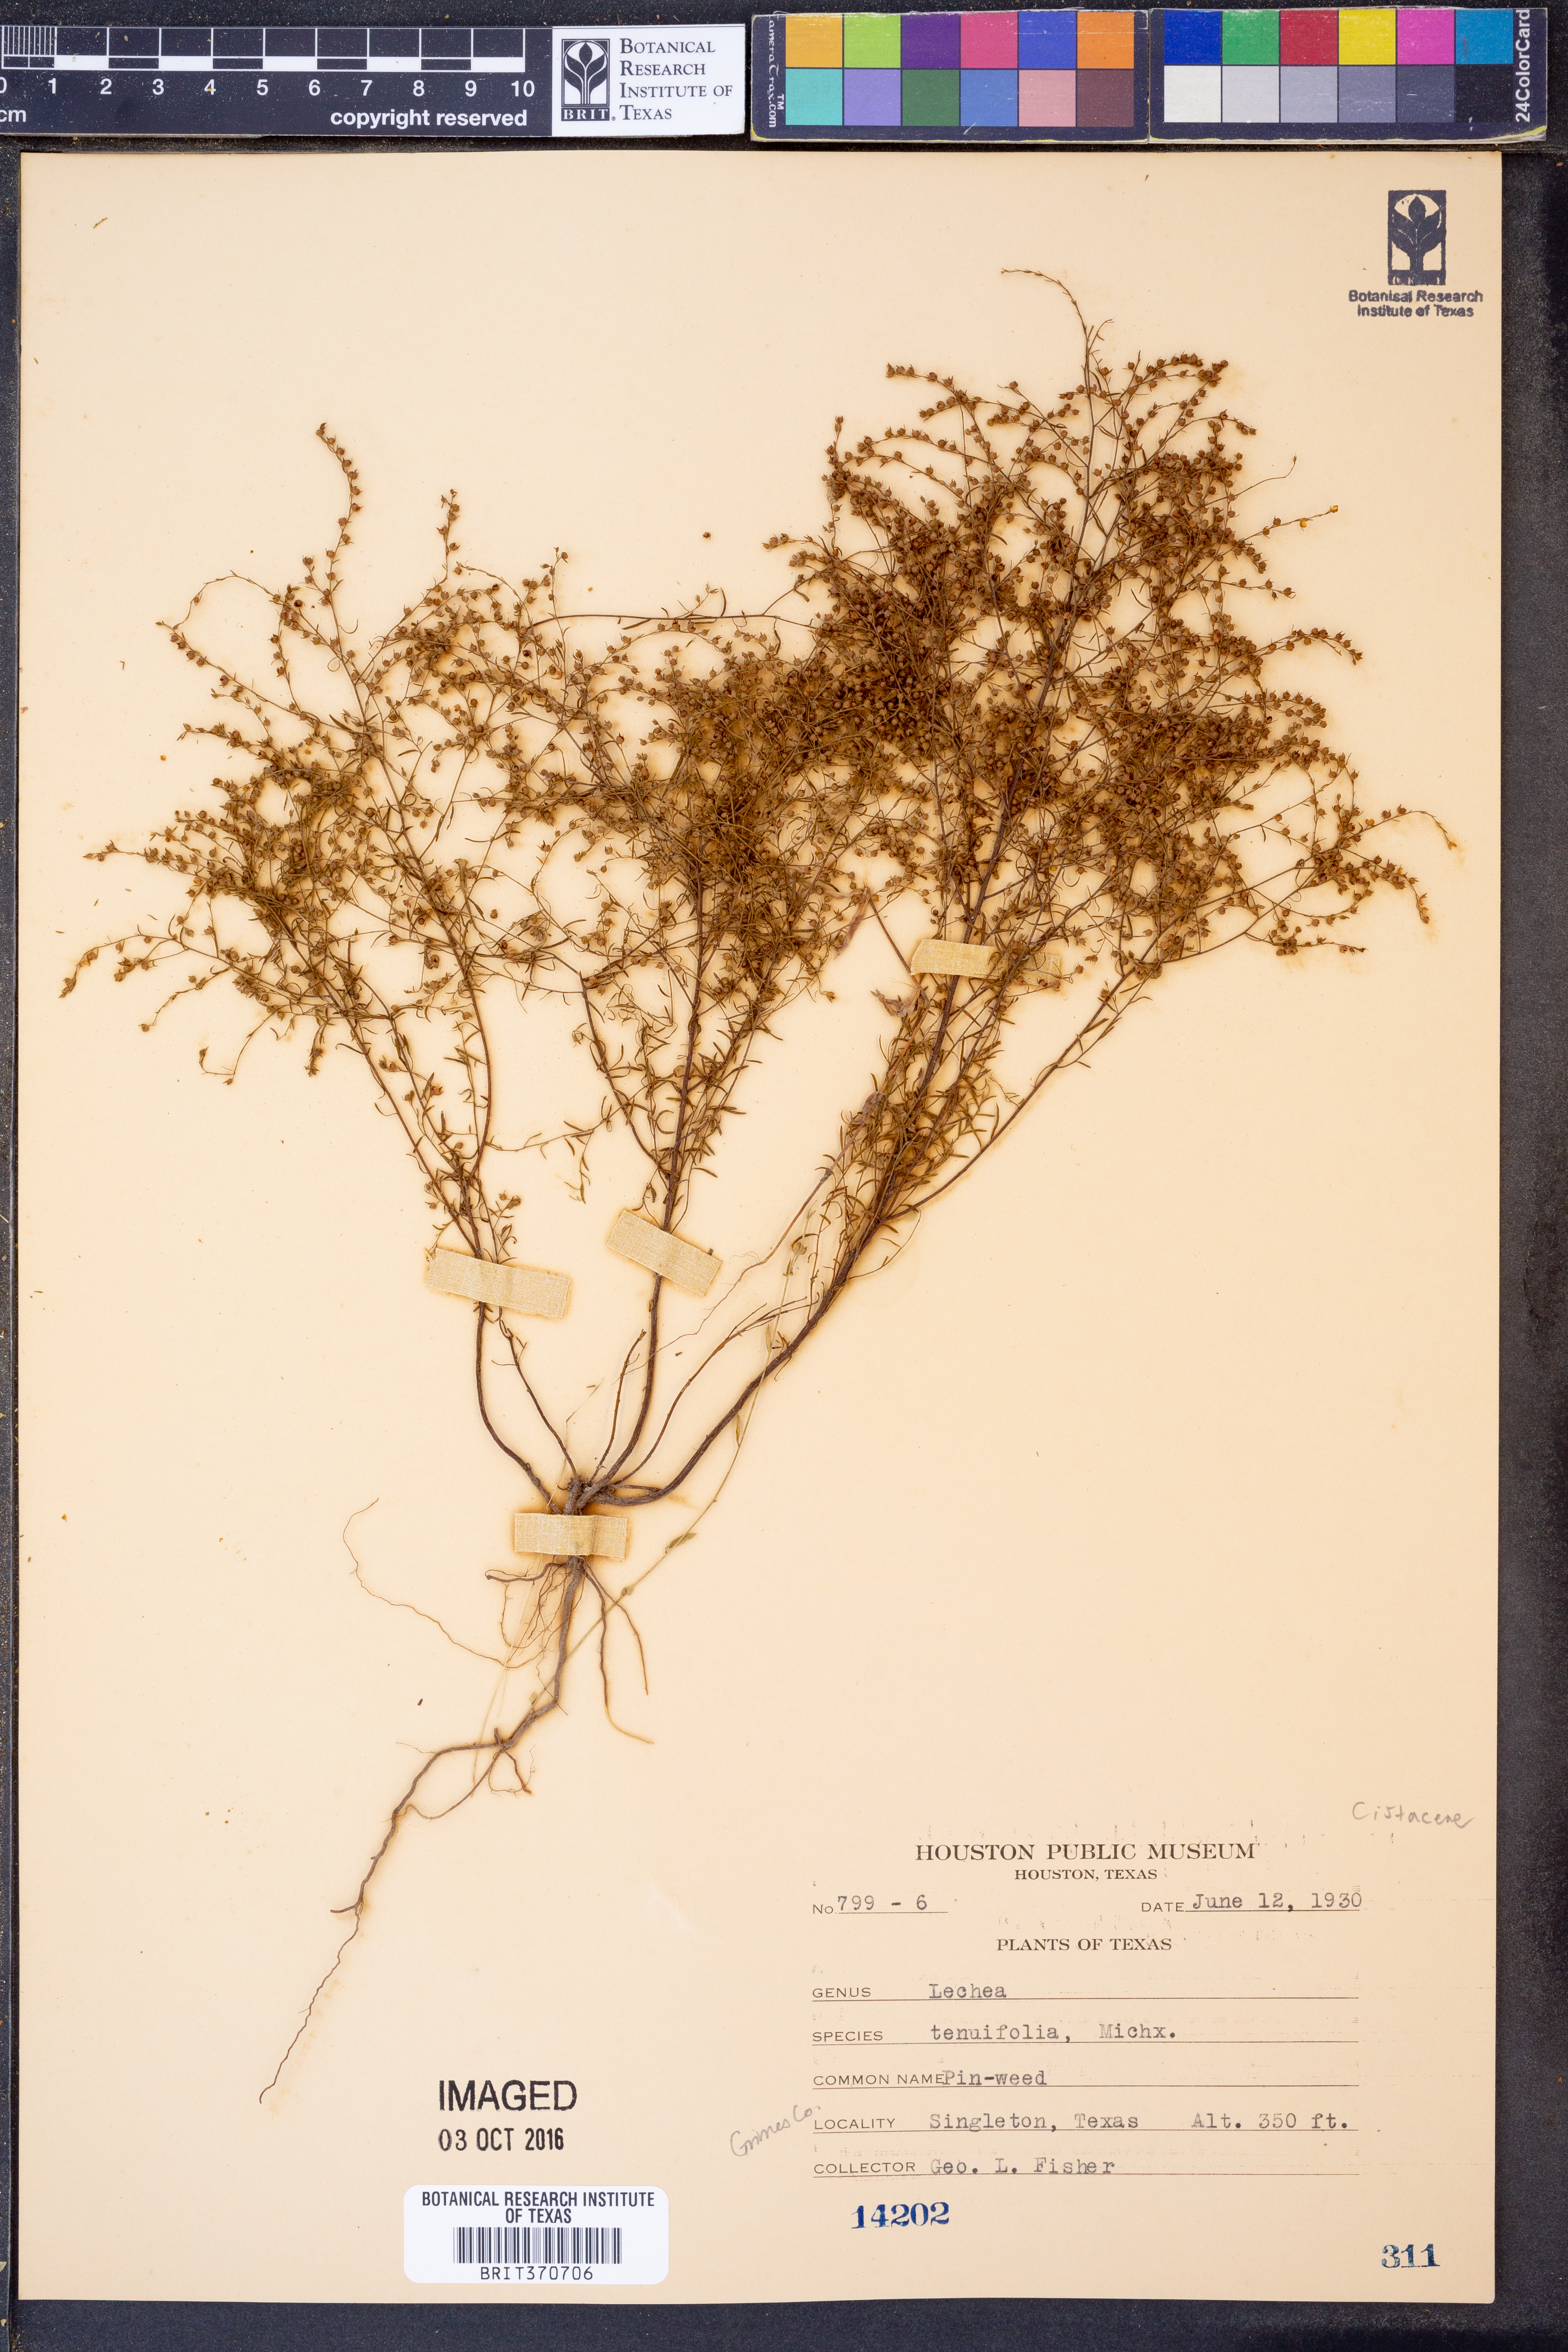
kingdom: Plantae
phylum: Tracheophyta
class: Magnoliopsida
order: Malvales
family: Cistaceae
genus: Lechea
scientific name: Lechea tenuifolia
